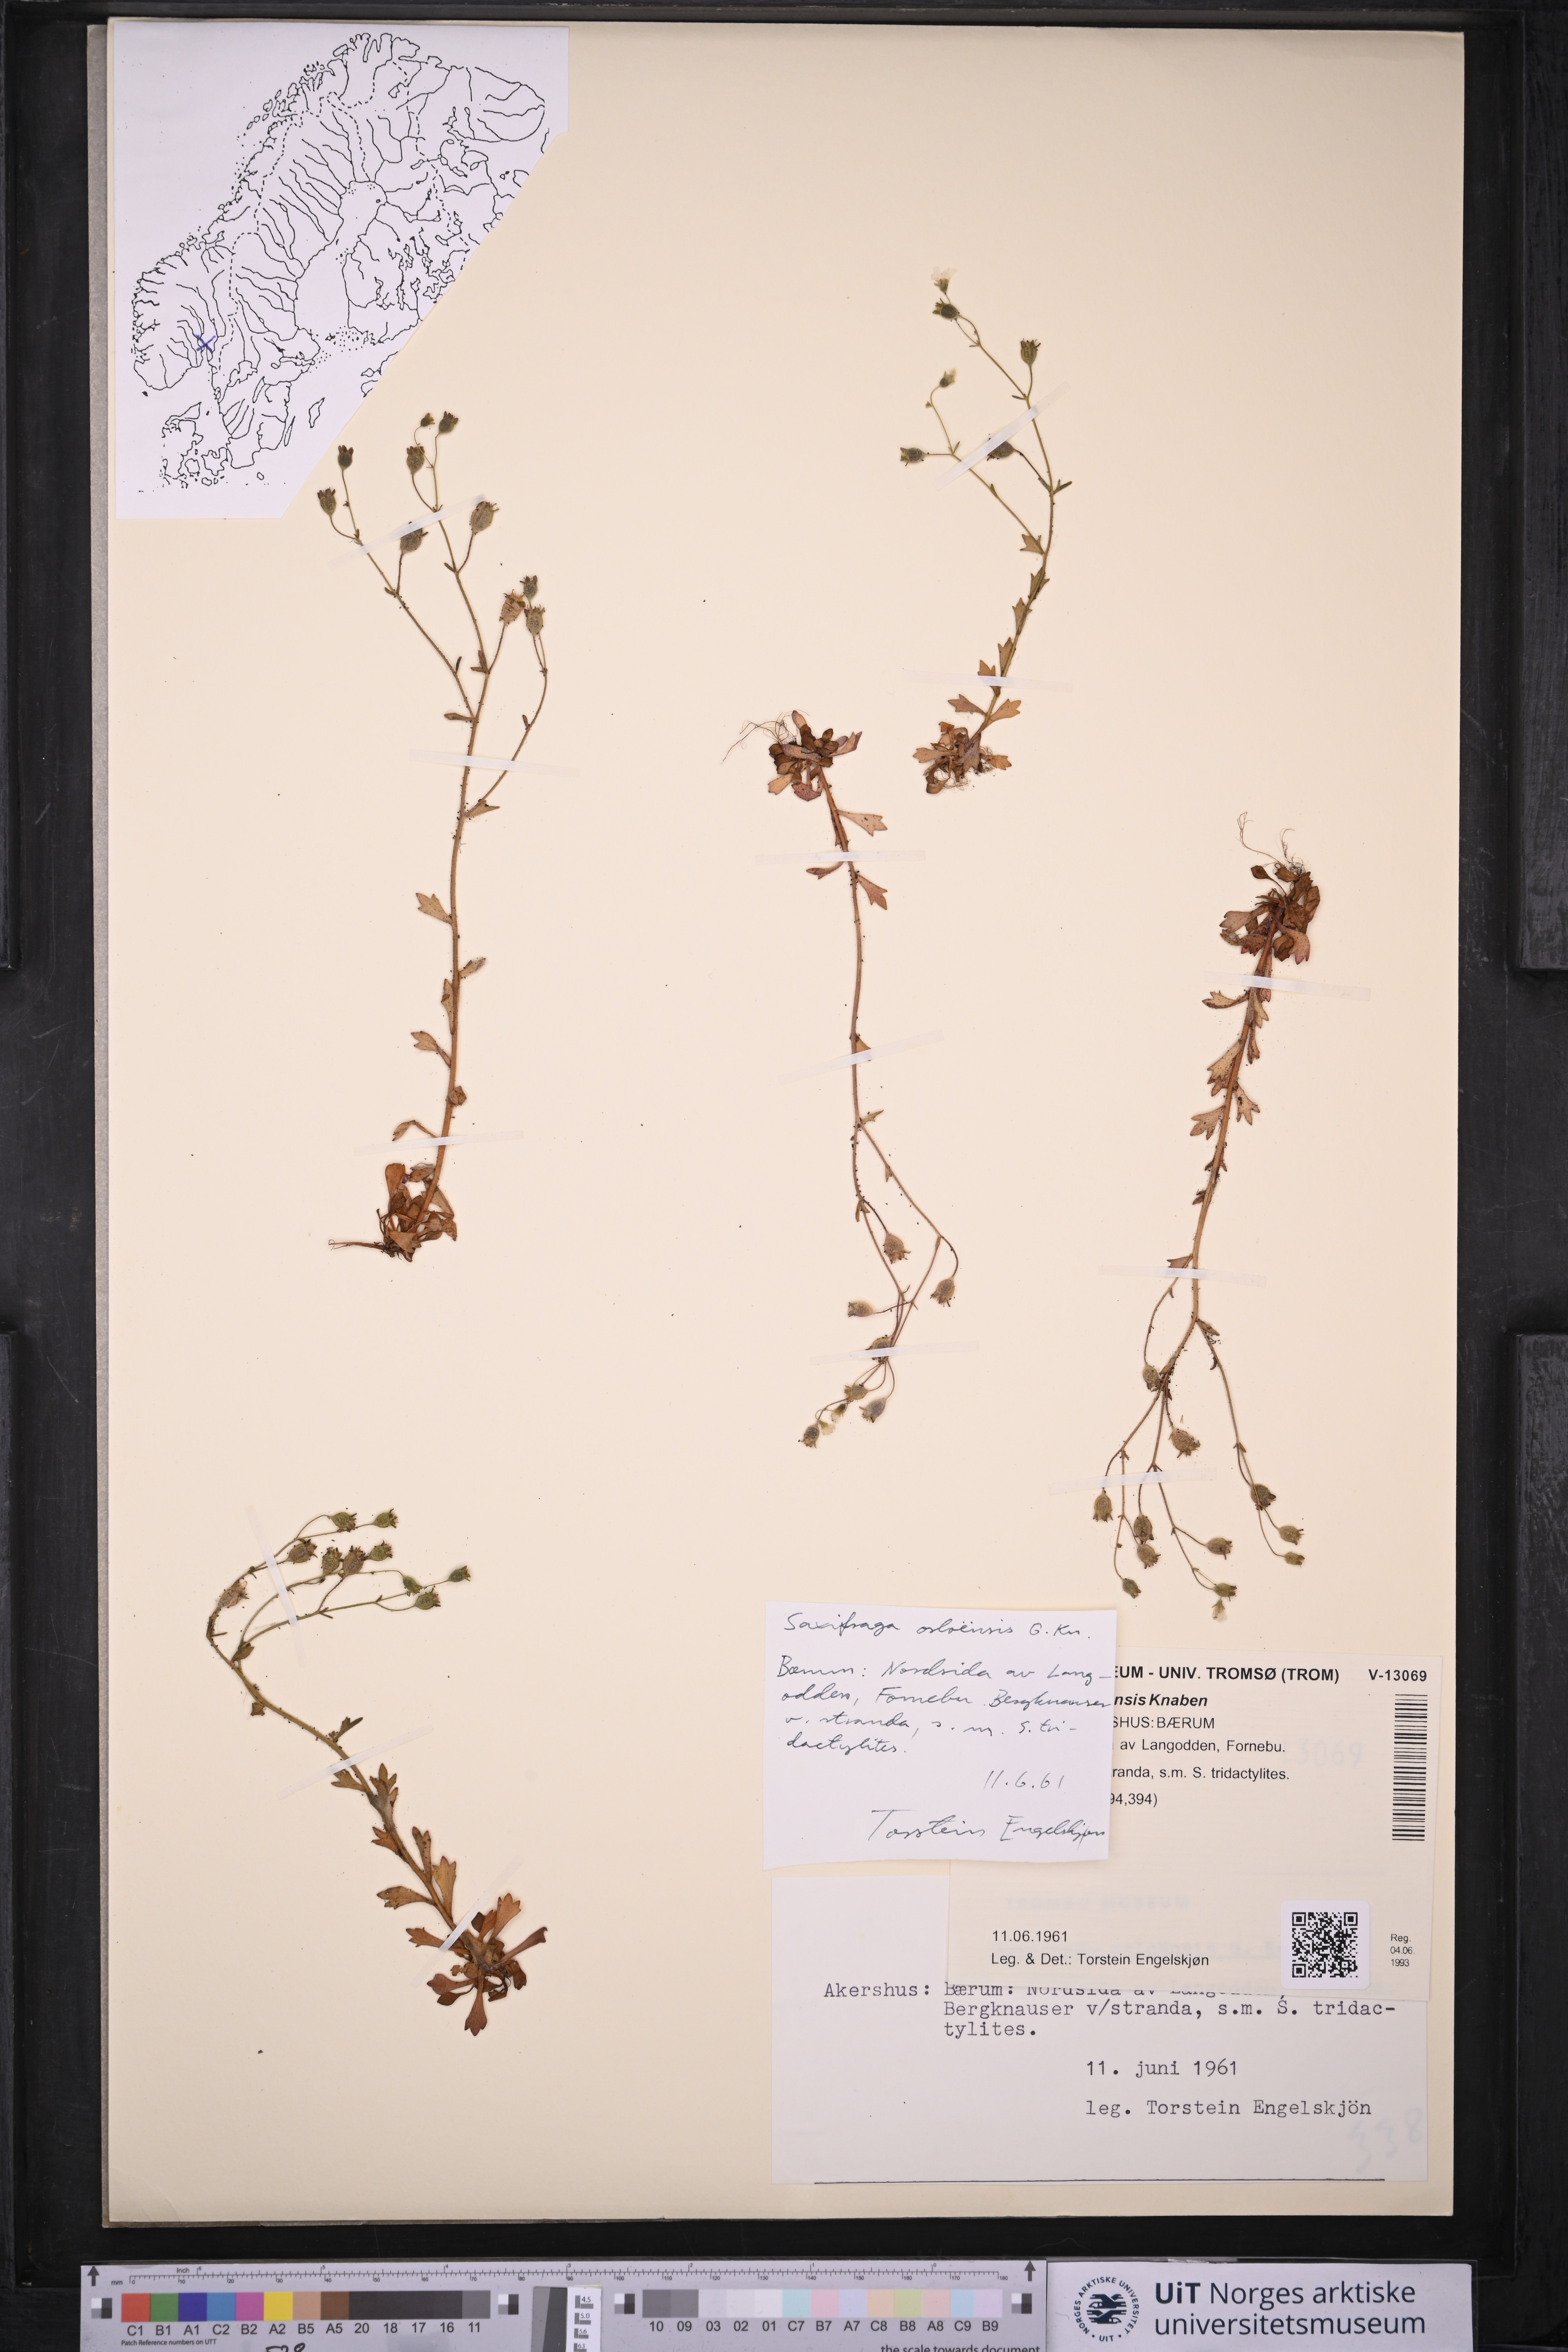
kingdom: Plantae
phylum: Tracheophyta
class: Magnoliopsida
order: Saxifragales
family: Saxifragaceae
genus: Saxifraga
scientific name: Saxifraga osloensis
